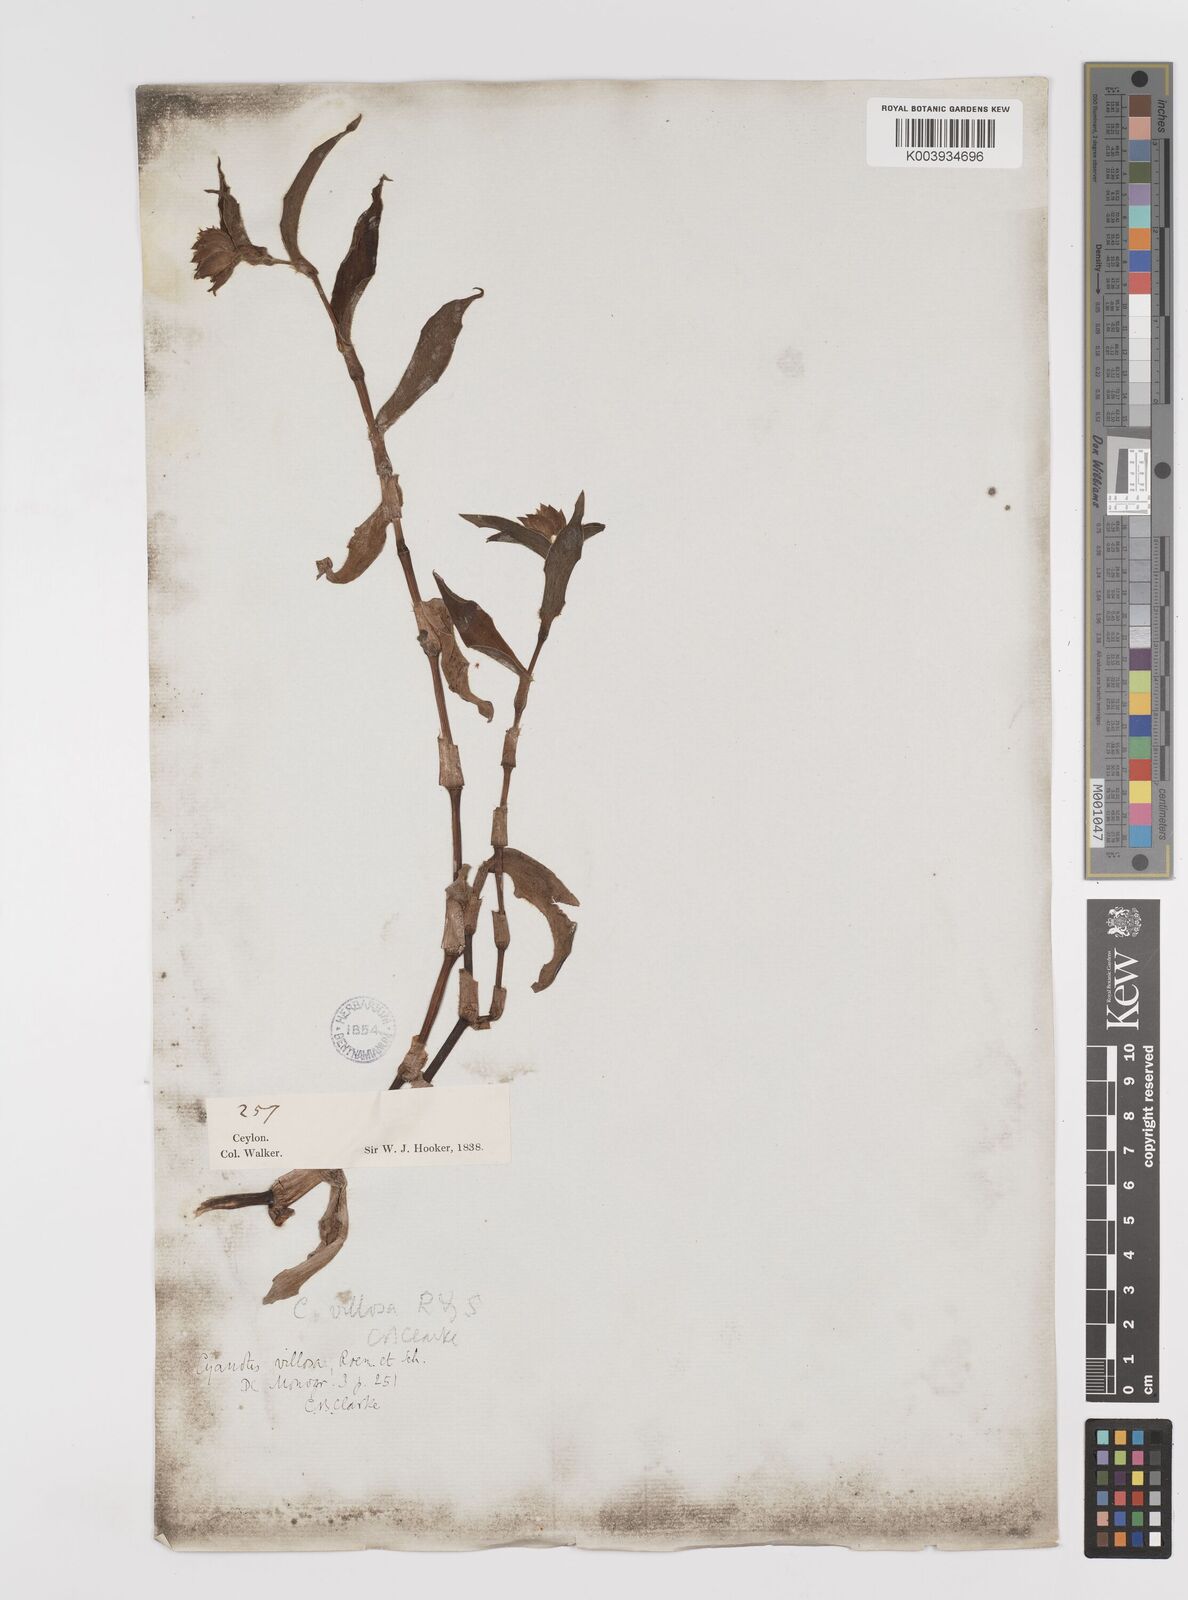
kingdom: Plantae
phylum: Tracheophyta
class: Liliopsida
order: Commelinales
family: Commelinaceae
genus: Cyanotis
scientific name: Cyanotis villosa
